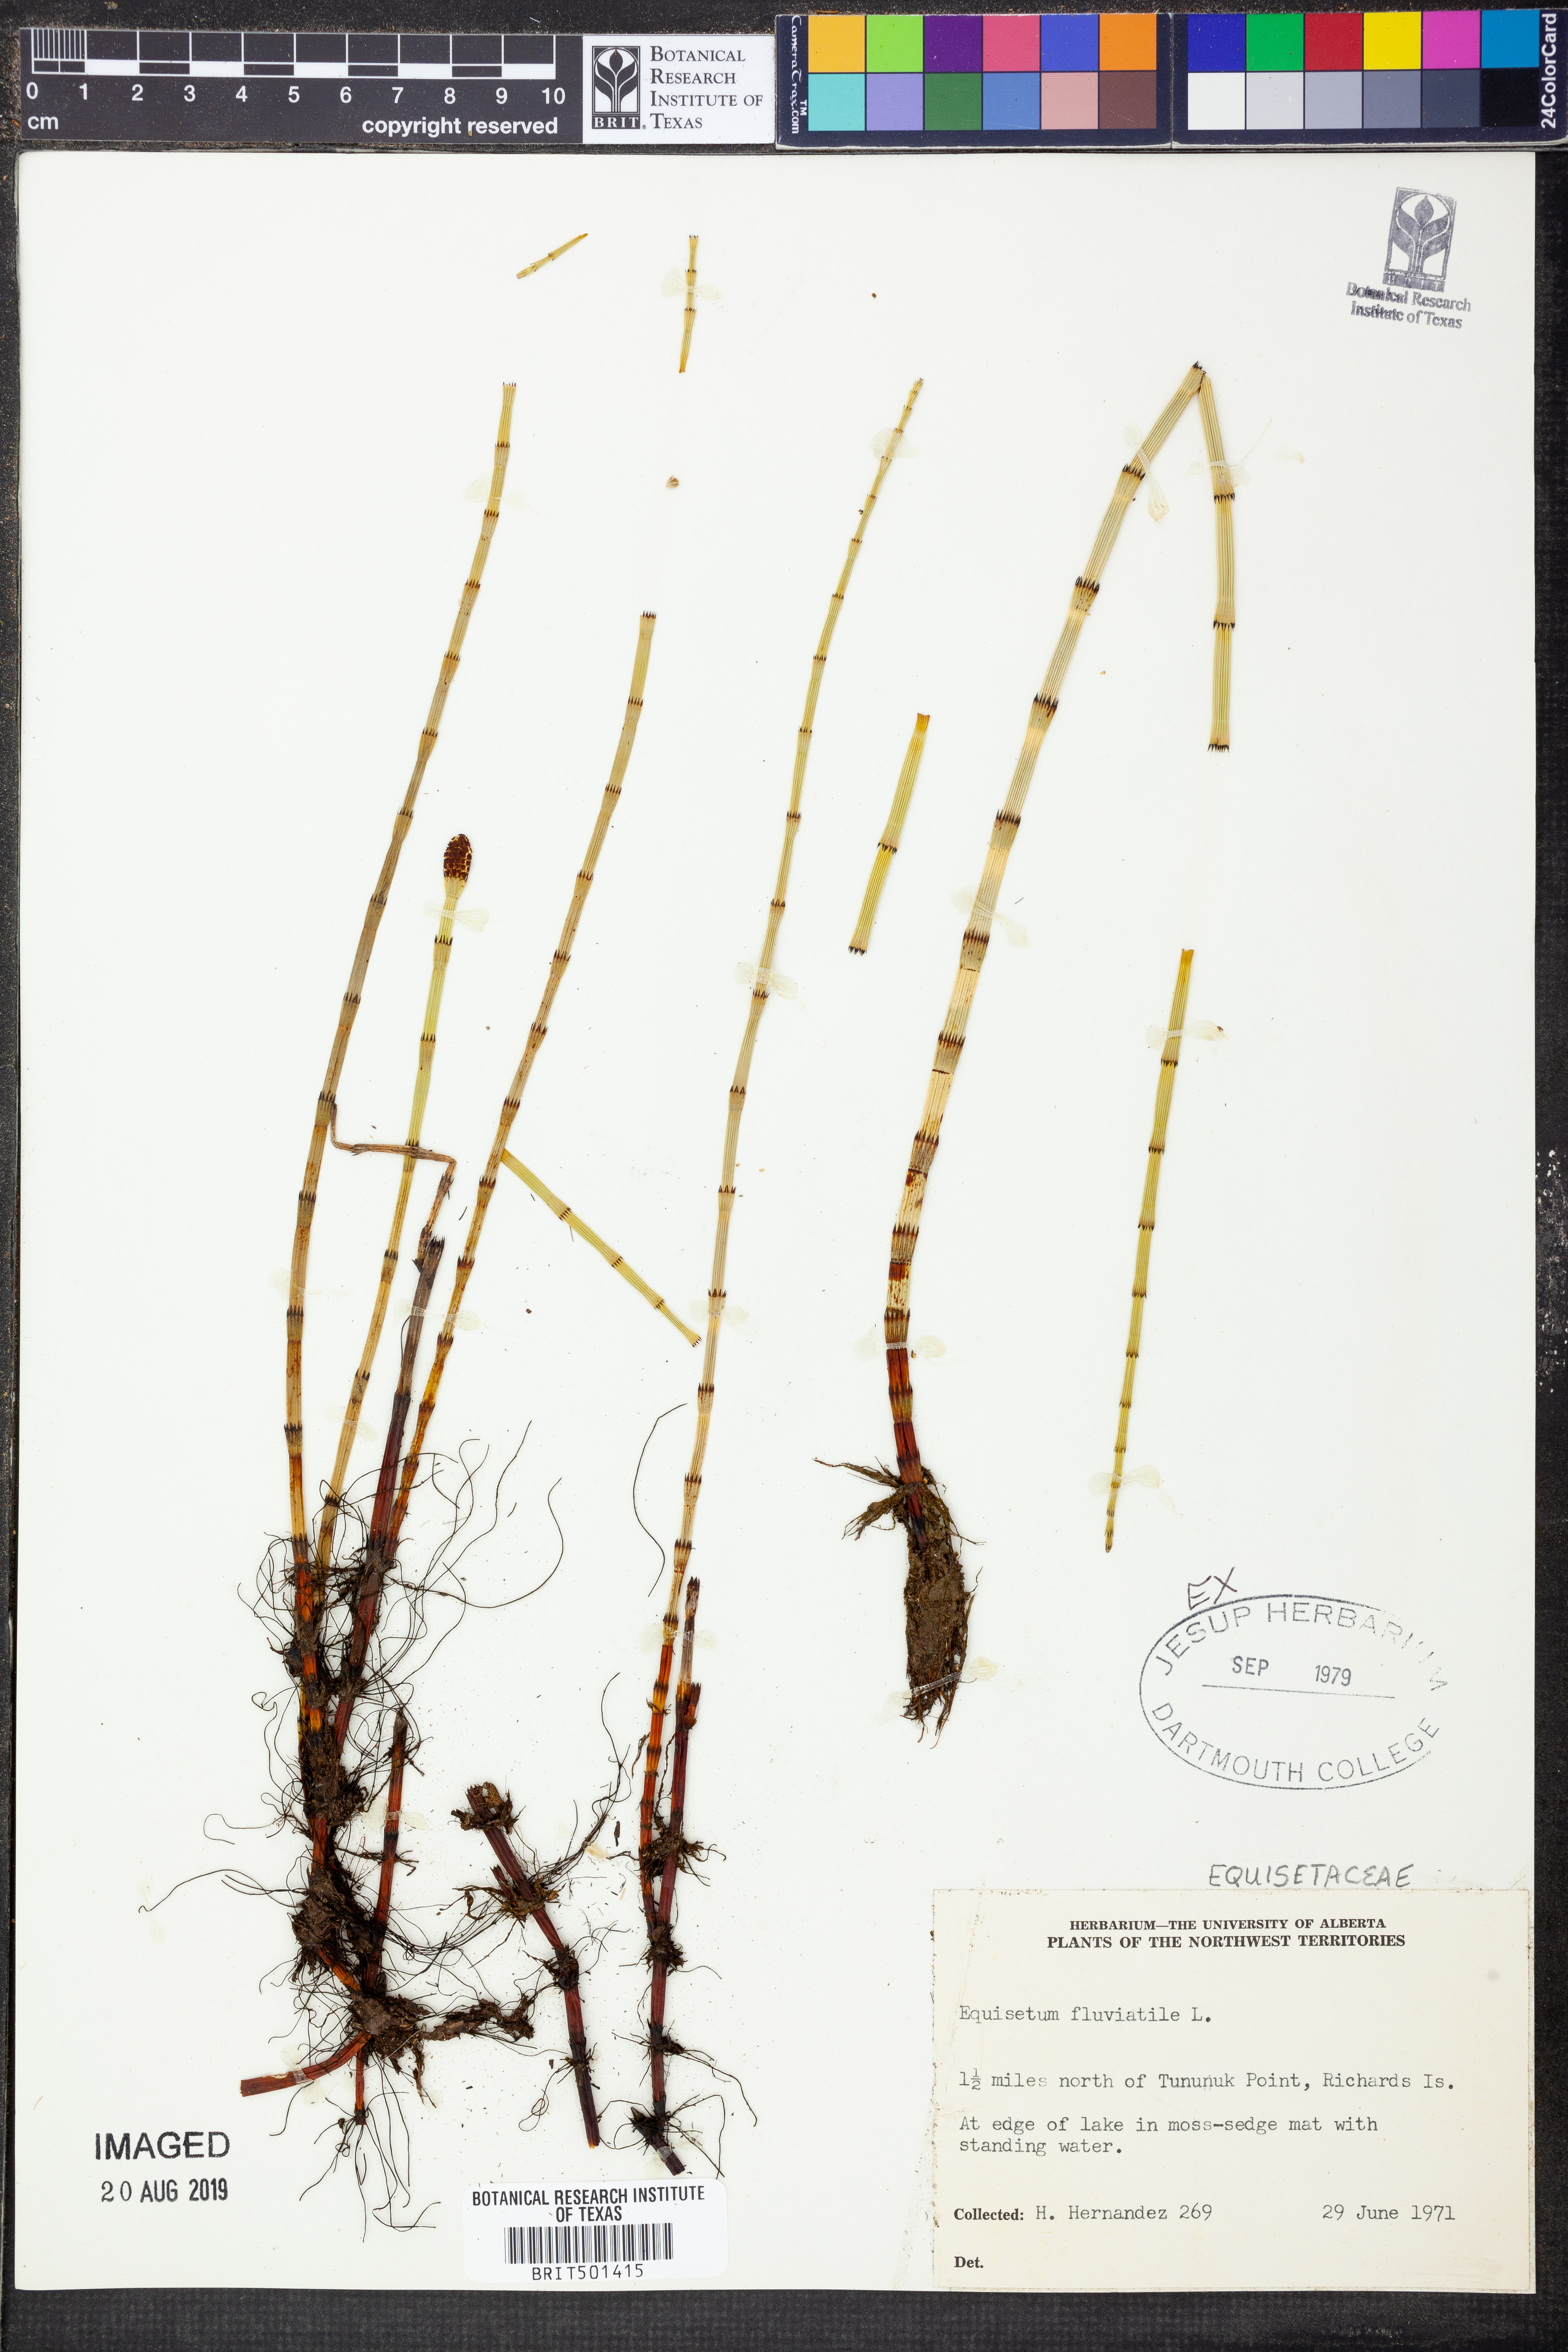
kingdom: Plantae
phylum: Tracheophyta
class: Polypodiopsida
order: Equisetales
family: Equisetaceae
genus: Equisetum
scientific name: Equisetum fluviatile
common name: Water horsetail
